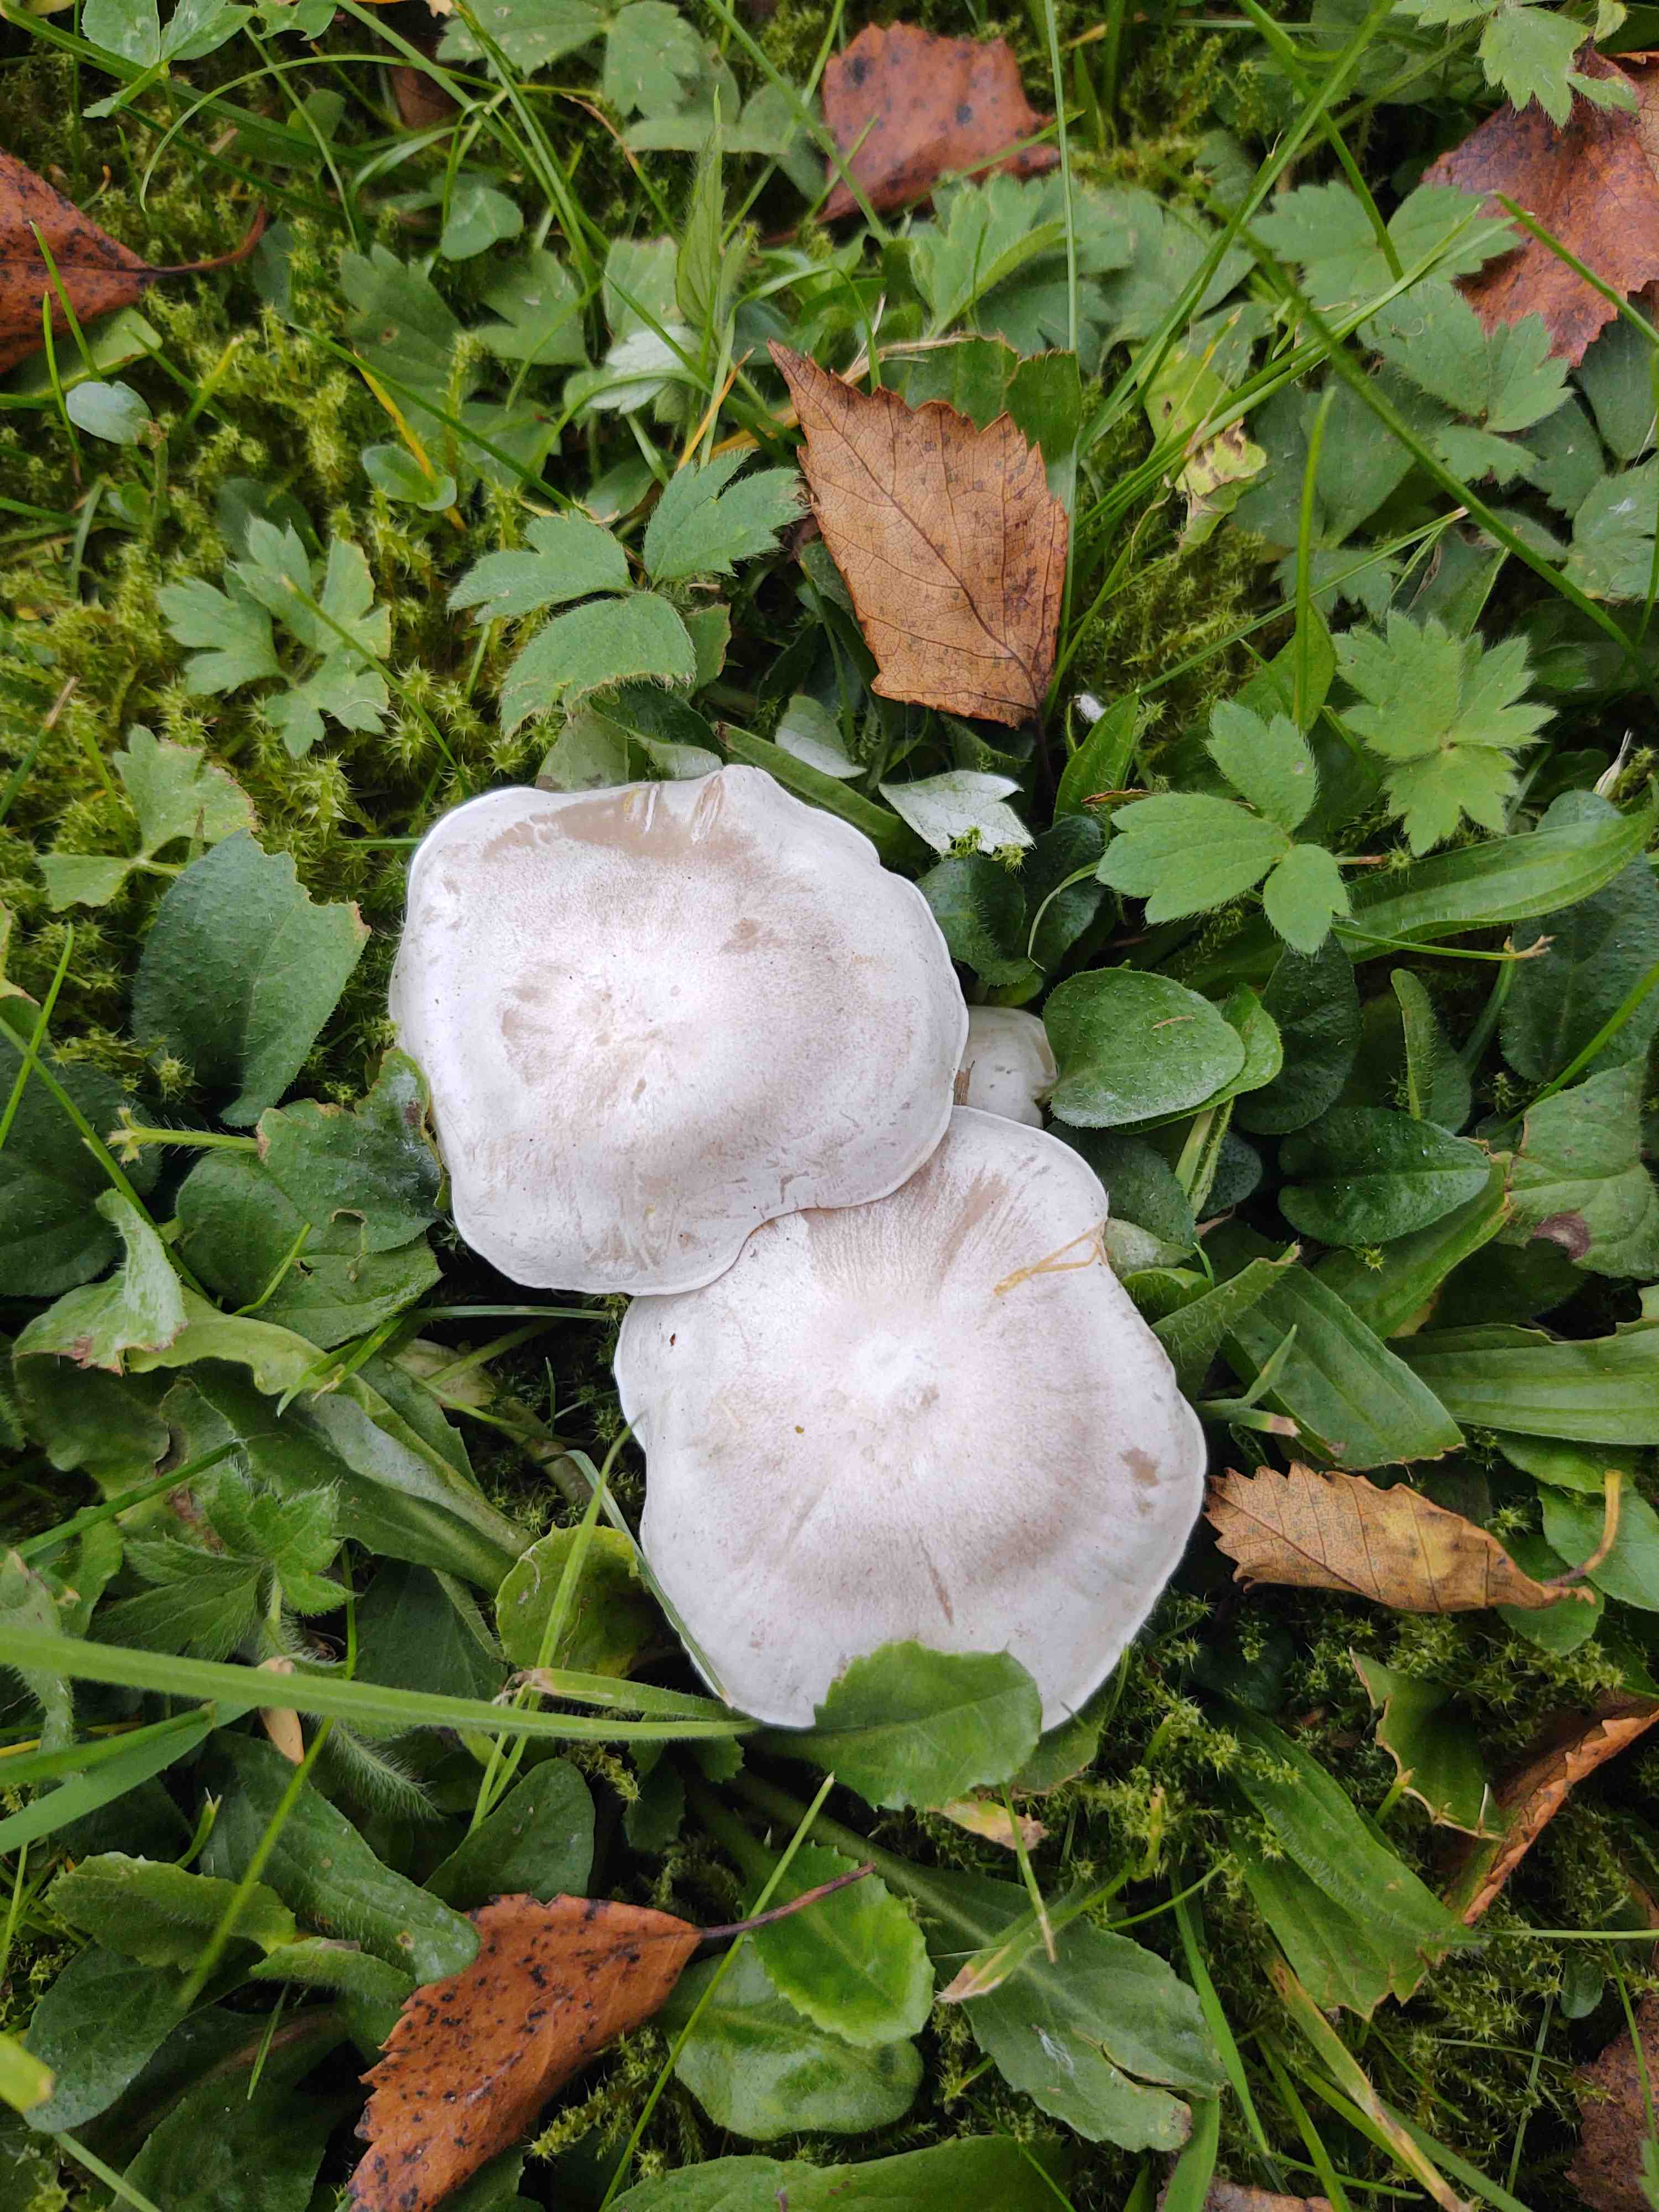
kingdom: Fungi
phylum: Basidiomycota
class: Agaricomycetes
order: Agaricales
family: Tricholomataceae
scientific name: Tricholomataceae
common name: ridderhatfamilien
